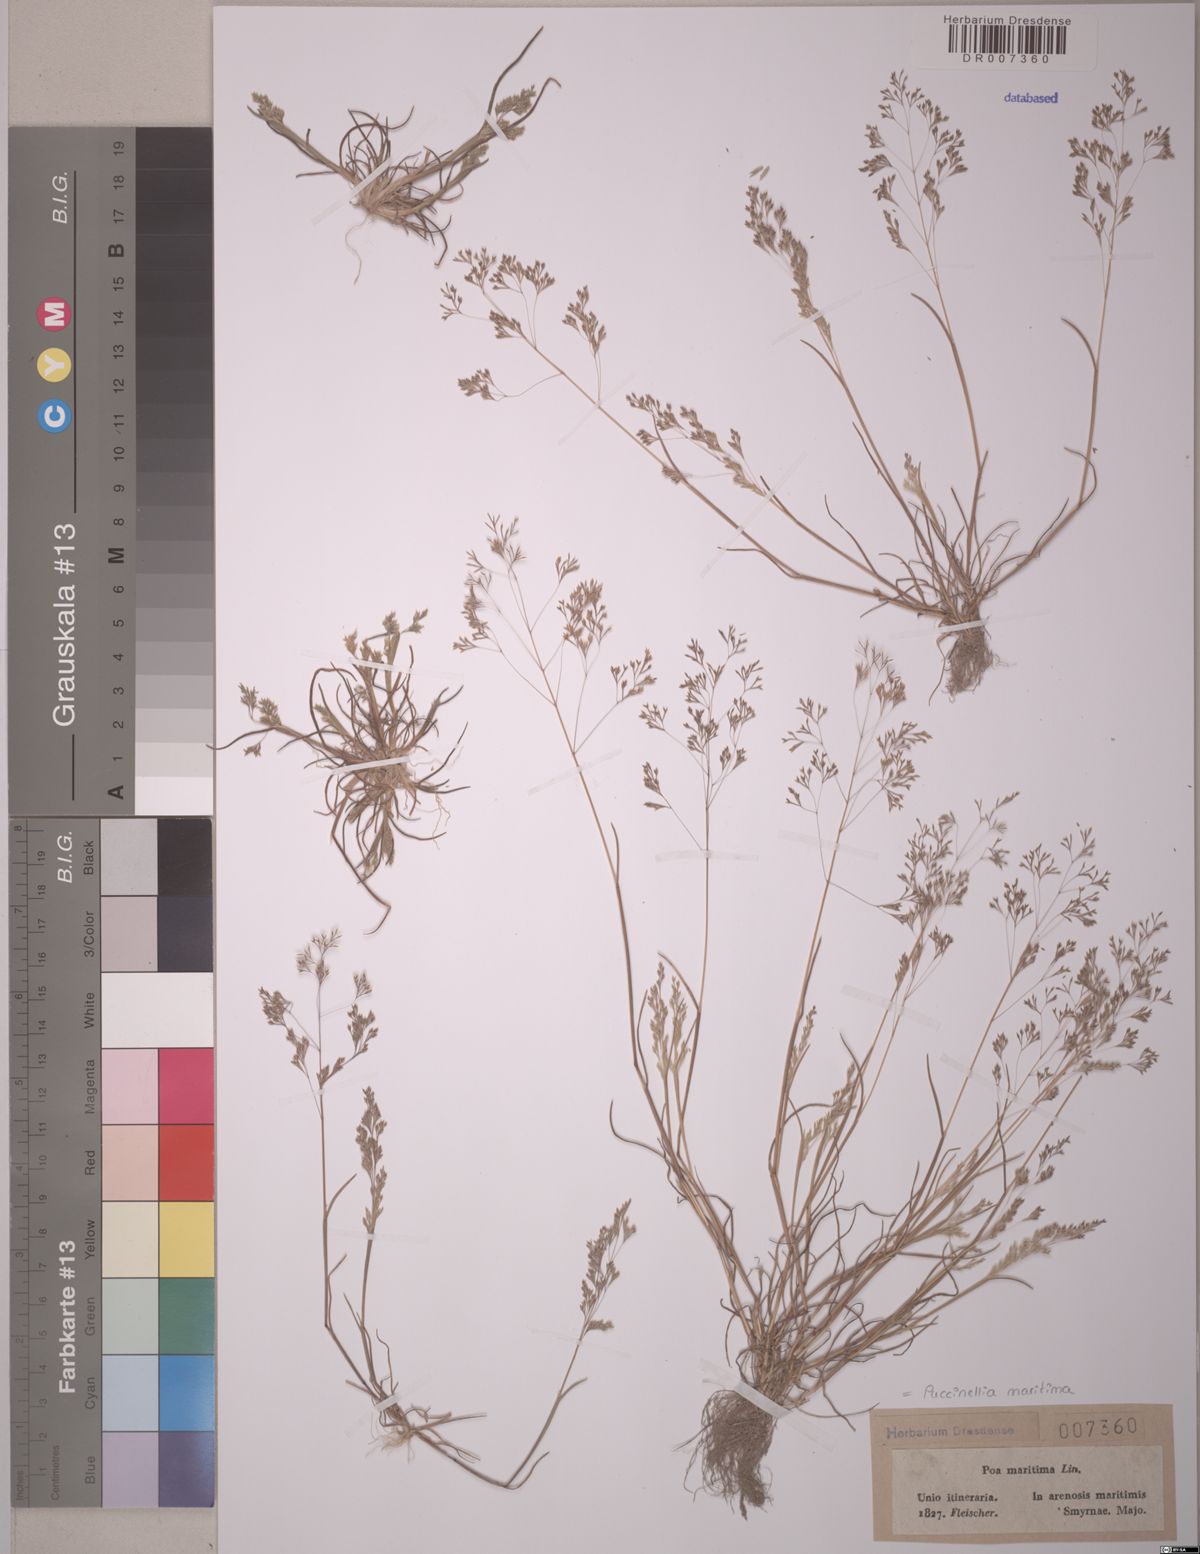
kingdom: Plantae
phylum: Tracheophyta
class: Liliopsida
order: Poales
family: Poaceae
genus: Puccinellia
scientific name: Puccinellia maritima
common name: Common saltmarsh grass
